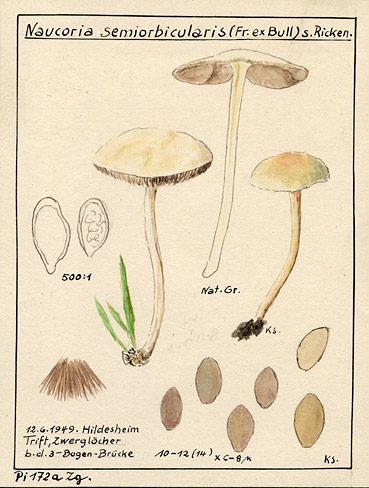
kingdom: Fungi
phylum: Basidiomycota
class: Agaricomycetes
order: Agaricales
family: Strophariaceae
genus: Agrocybe
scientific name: Agrocybe pediades
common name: Common fieldcap
